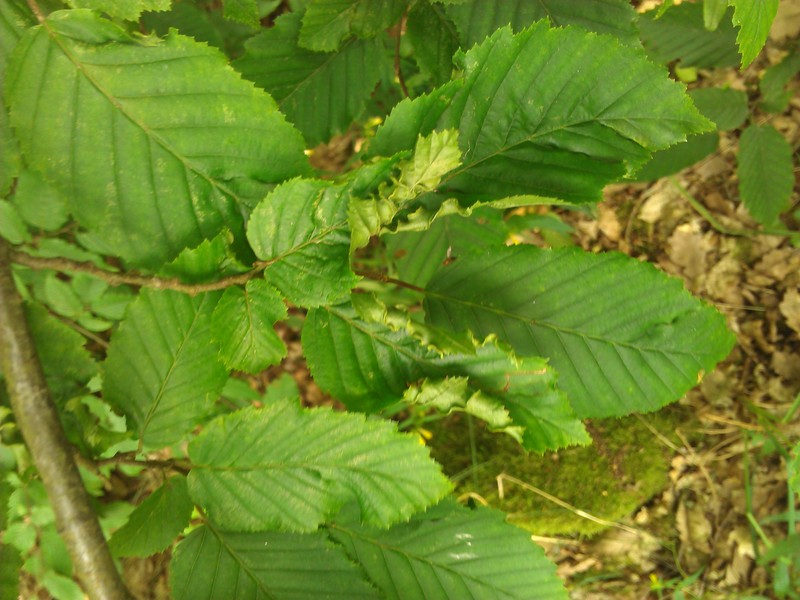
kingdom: Animalia
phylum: Arthropoda
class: Arachnida
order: Trombidiformes
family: Eriophyidae
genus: Aculops
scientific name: Aculops macrotrichus
